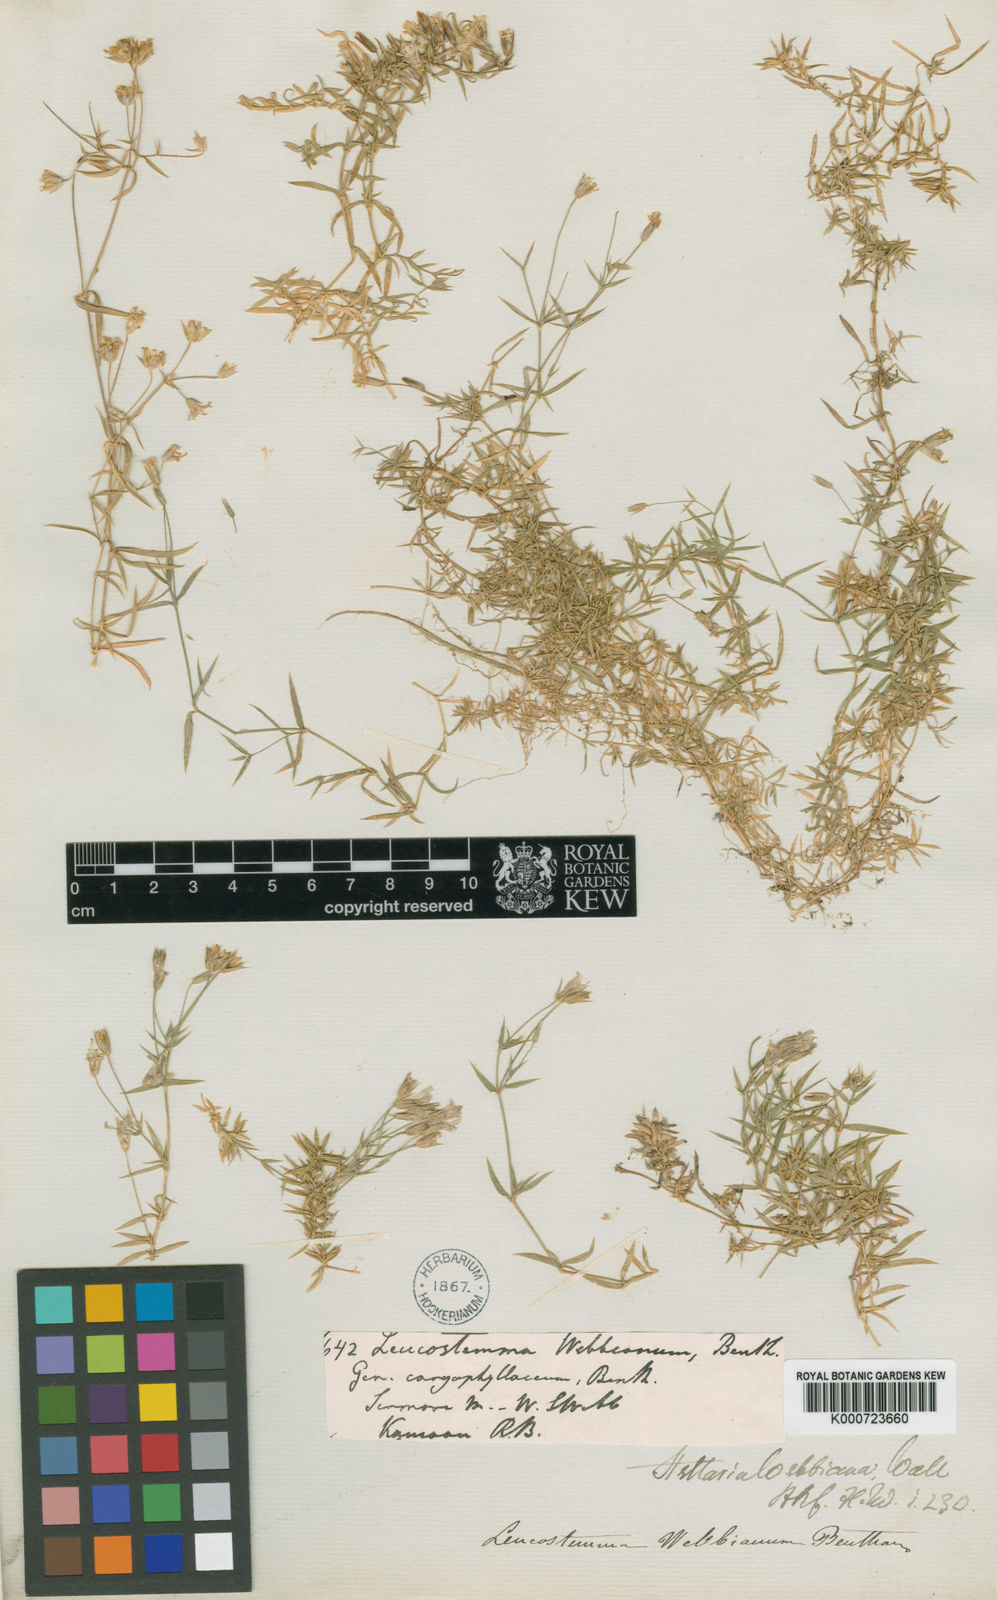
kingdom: Plantae
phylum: Tracheophyta
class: Magnoliopsida
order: Caryophyllales
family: Caryophyllaceae
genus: Stellaria
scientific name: Stellaria
